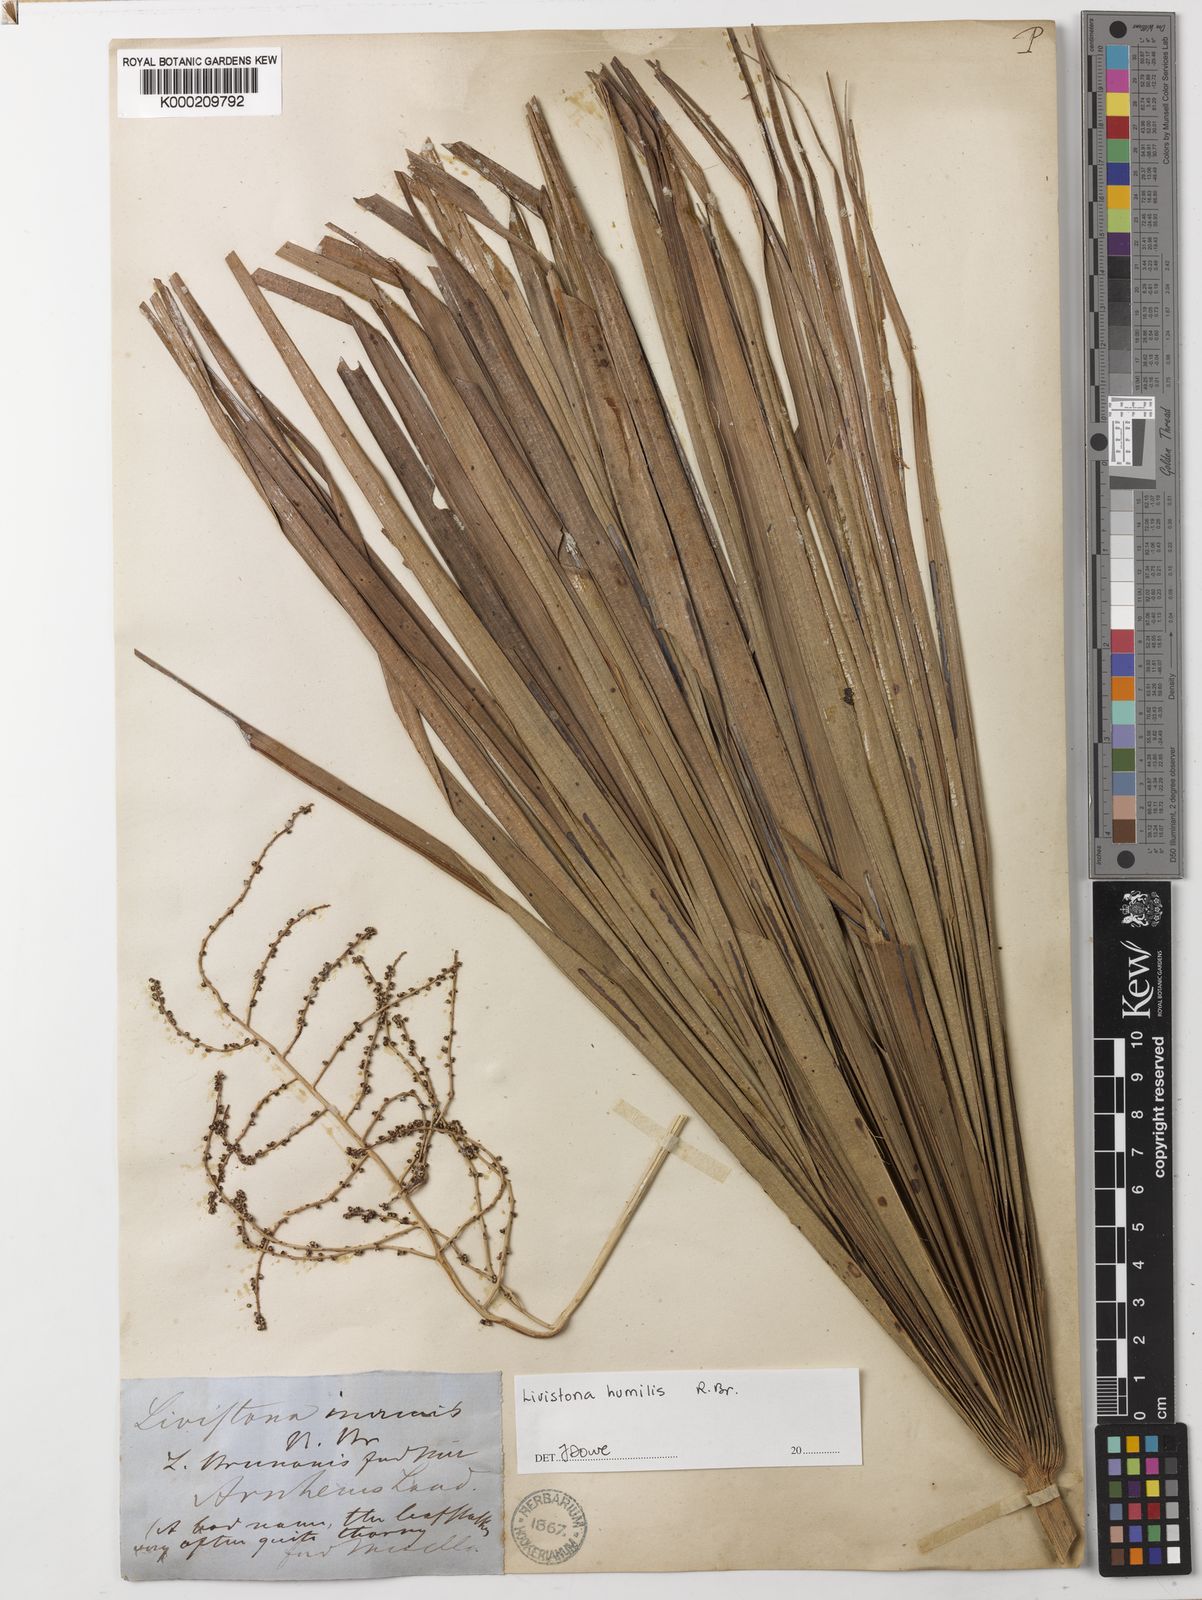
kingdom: Plantae
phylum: Tracheophyta
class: Liliopsida
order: Arecales
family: Arecaceae
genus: Livistona
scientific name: Livistona humilis
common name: Cabbage palm
